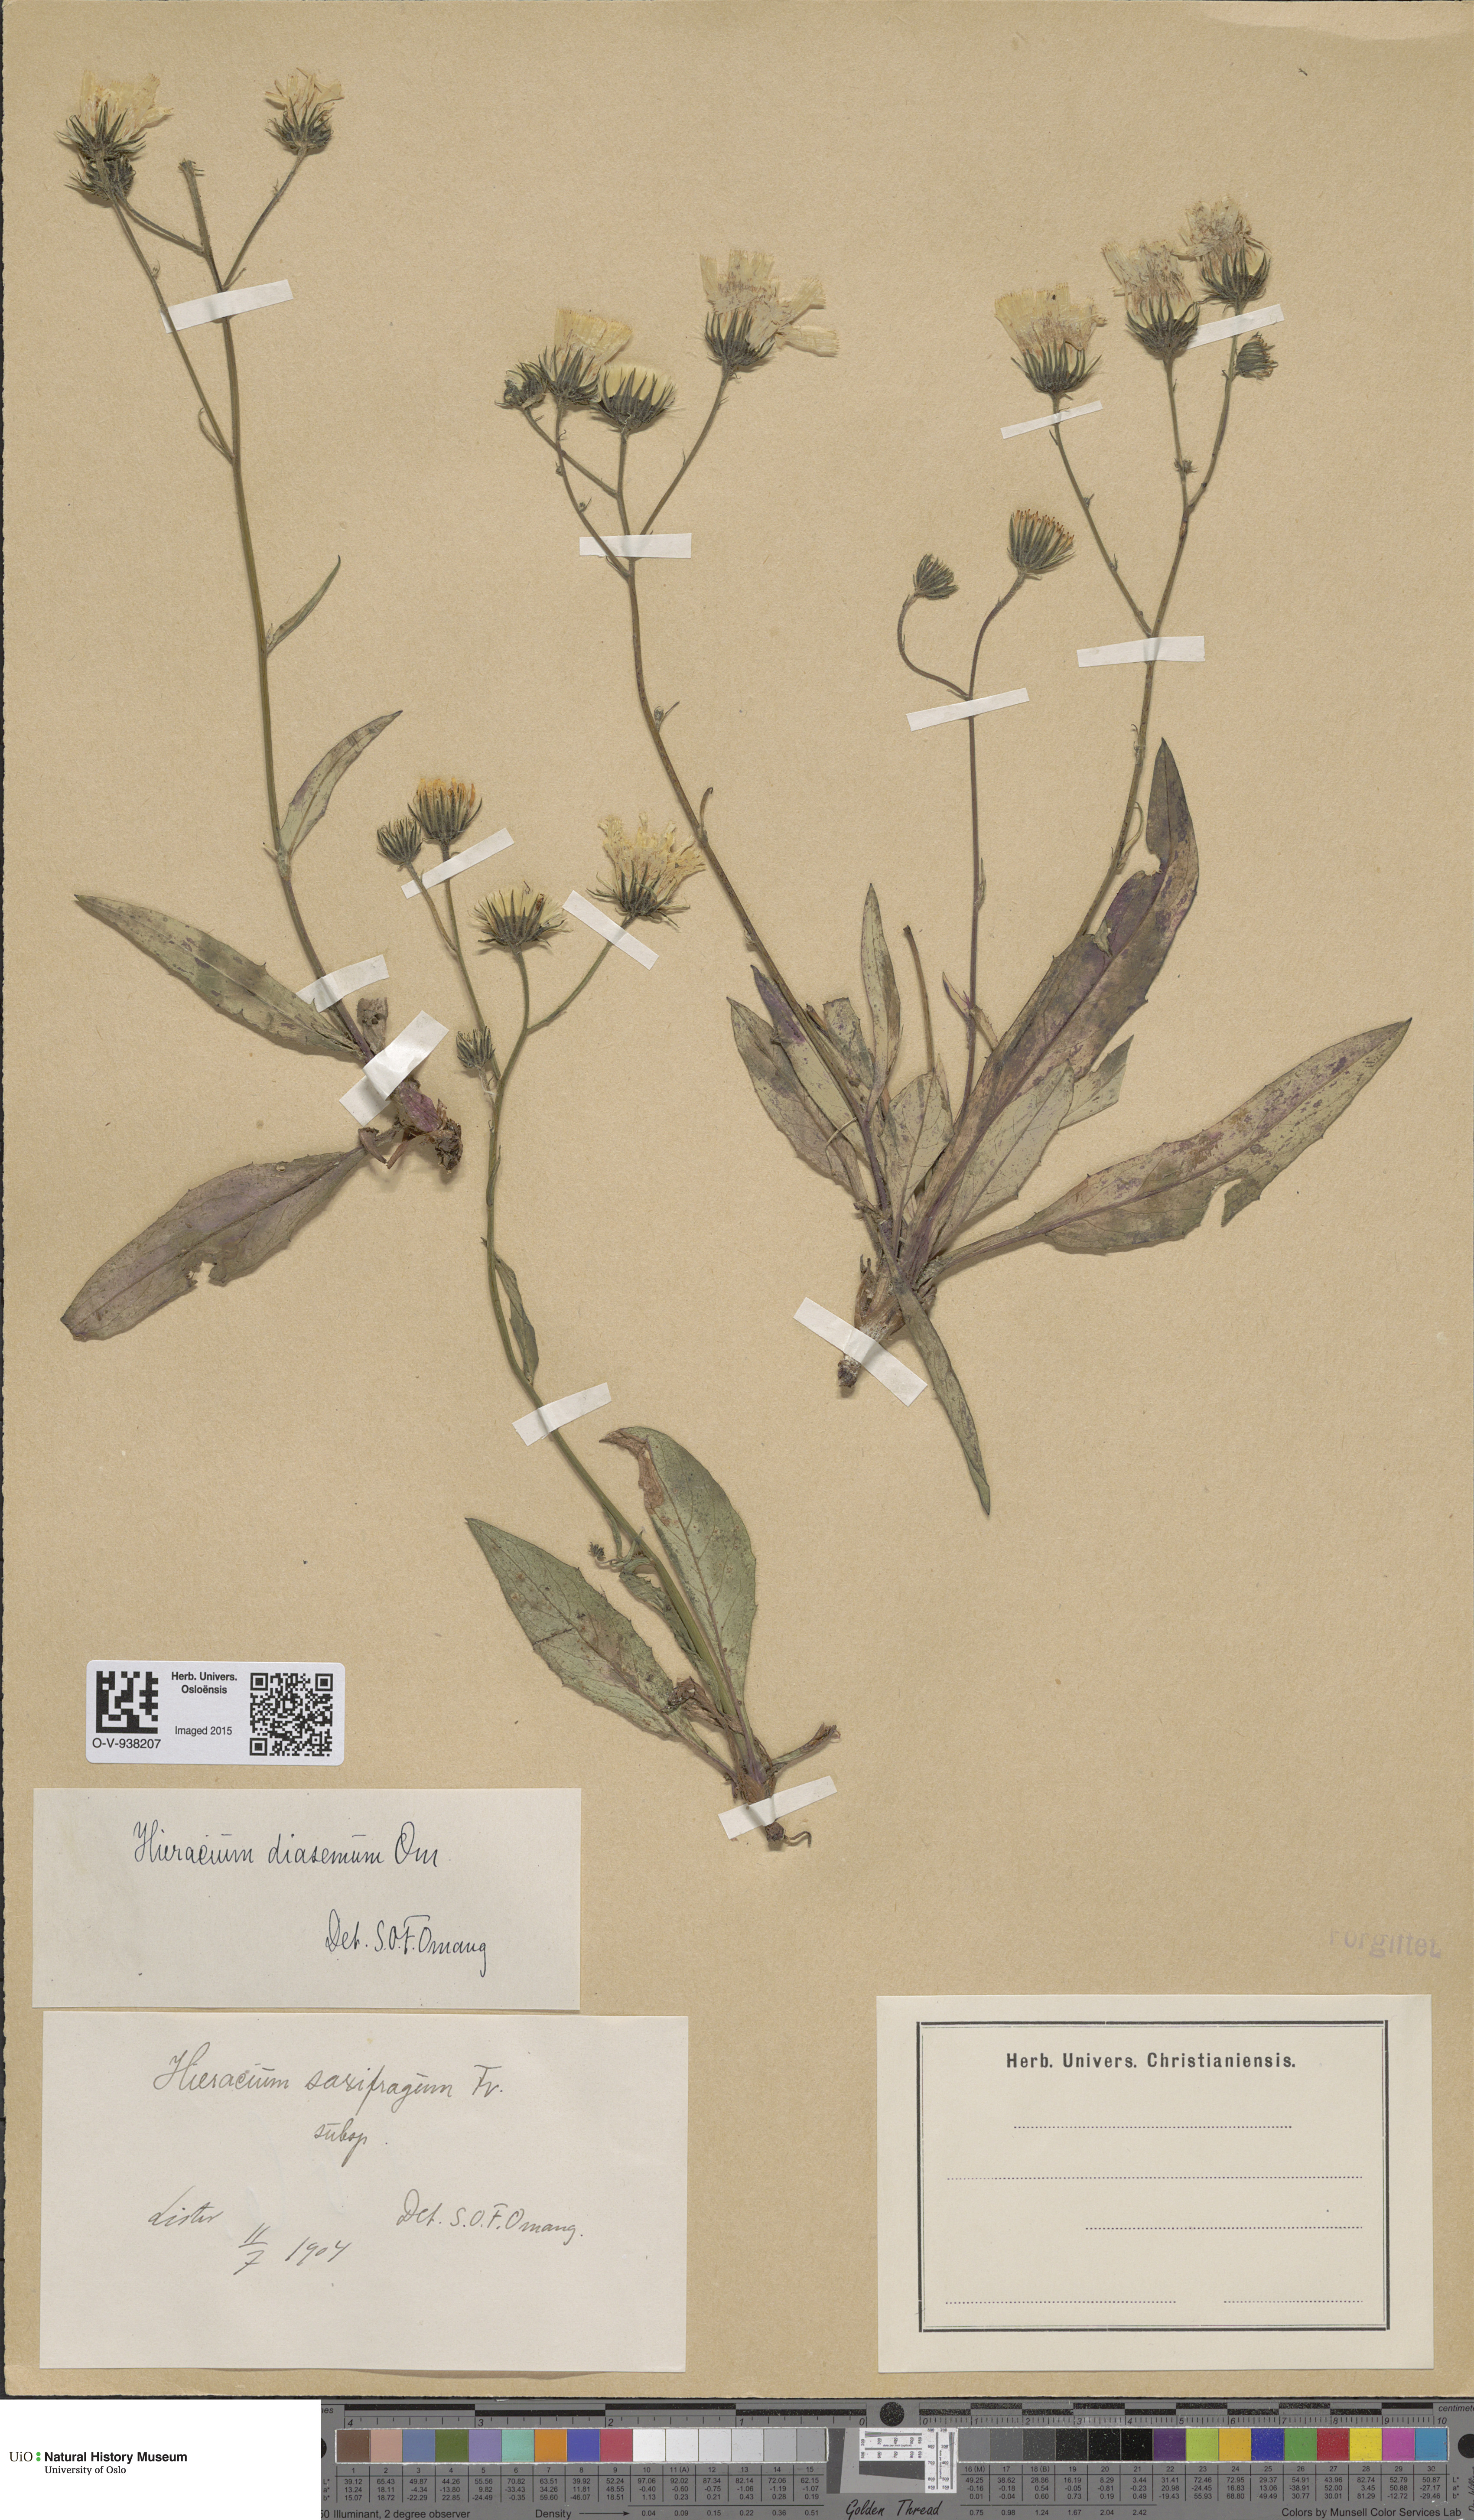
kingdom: Plantae
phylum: Tracheophyta
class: Magnoliopsida
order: Asterales
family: Asteraceae
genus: Hieracium
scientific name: Hieracium saxifragum
